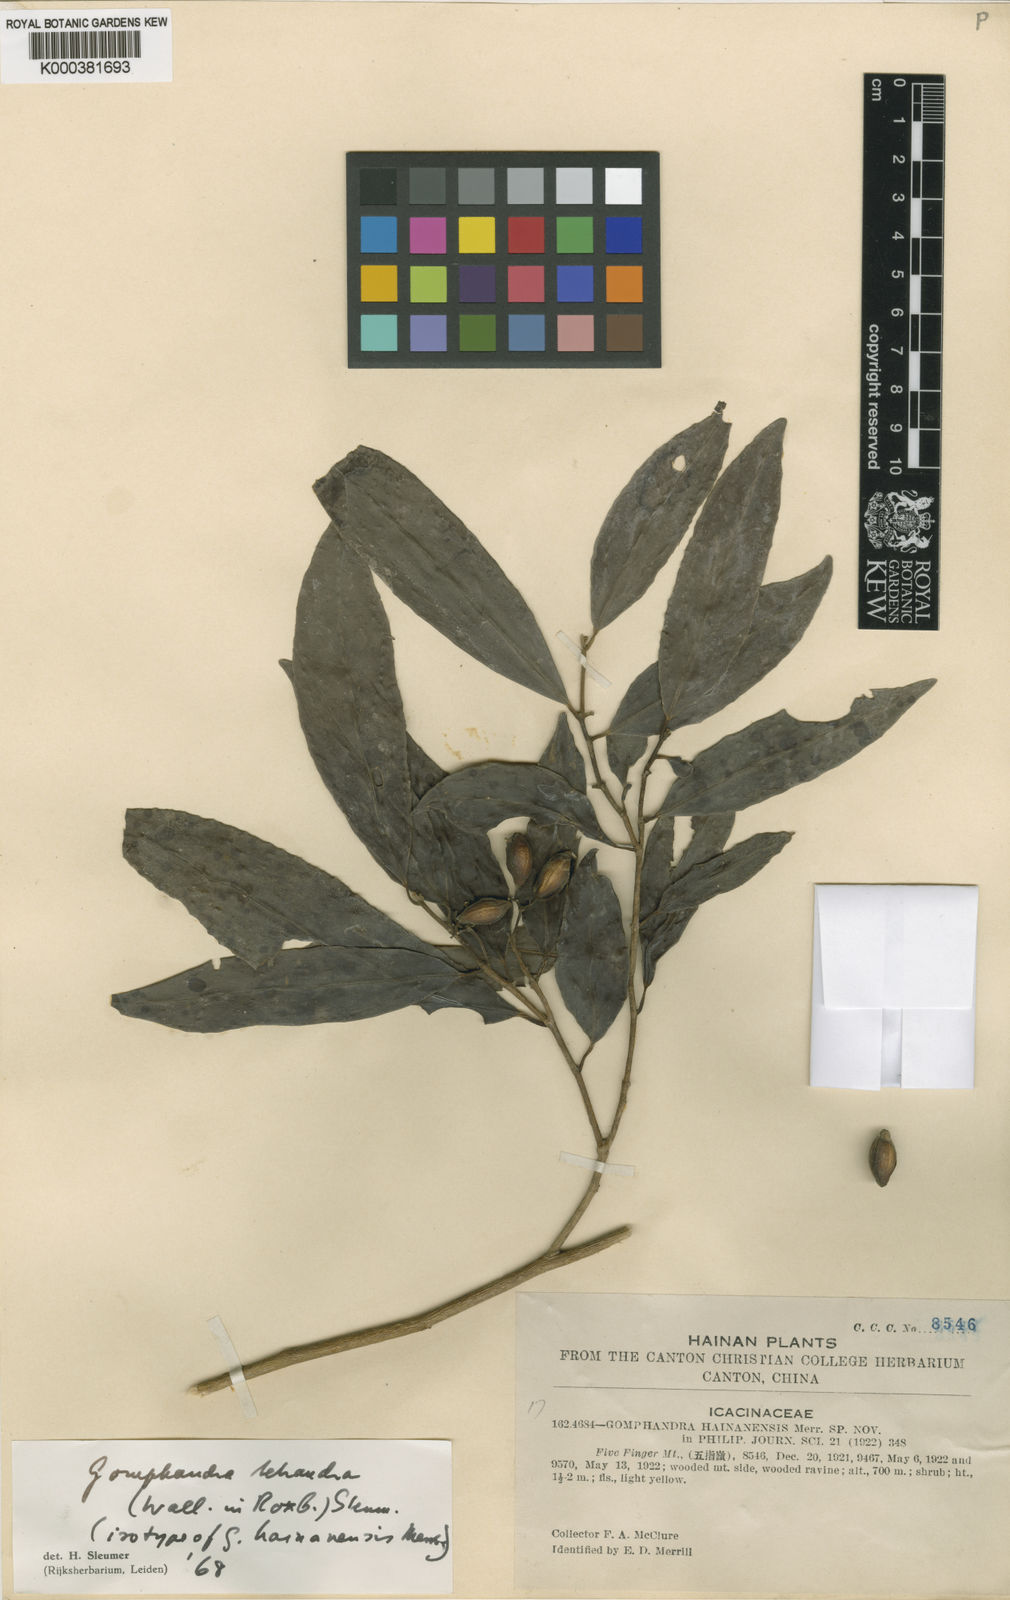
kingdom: Plantae
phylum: Tracheophyta
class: Magnoliopsida
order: Cardiopteridales
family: Stemonuraceae
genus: Gomphandra
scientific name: Gomphandra
